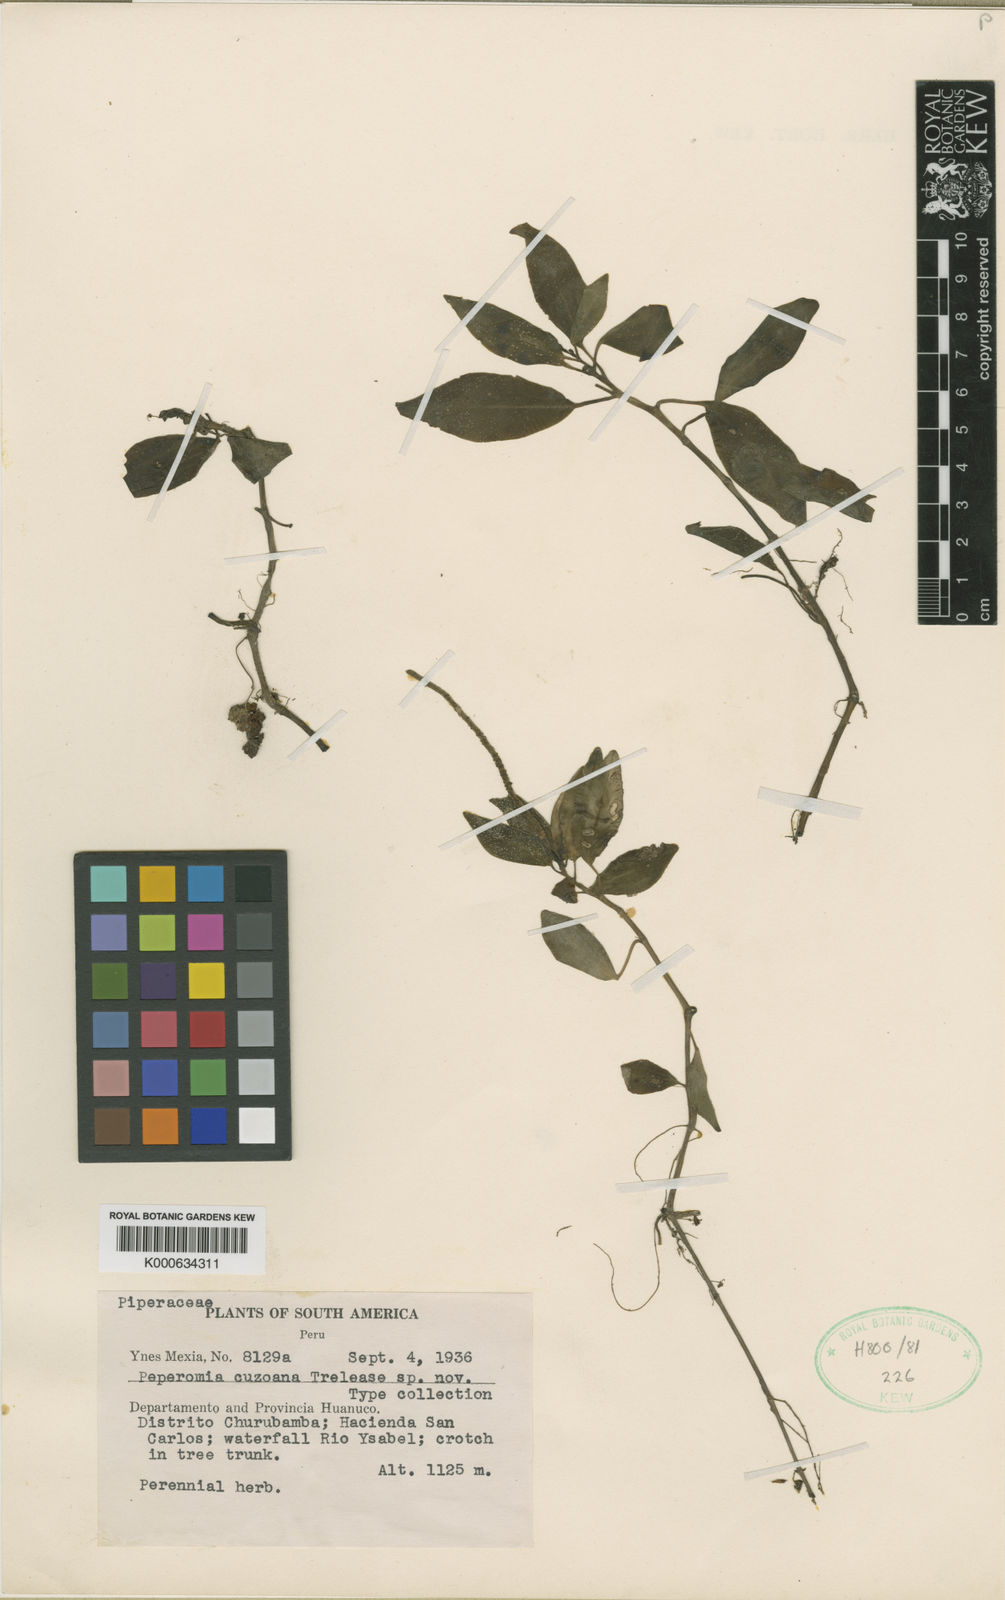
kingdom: Plantae
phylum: Tracheophyta
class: Magnoliopsida
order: Piperales
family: Piperaceae
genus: Peperomia
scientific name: Peperomia
